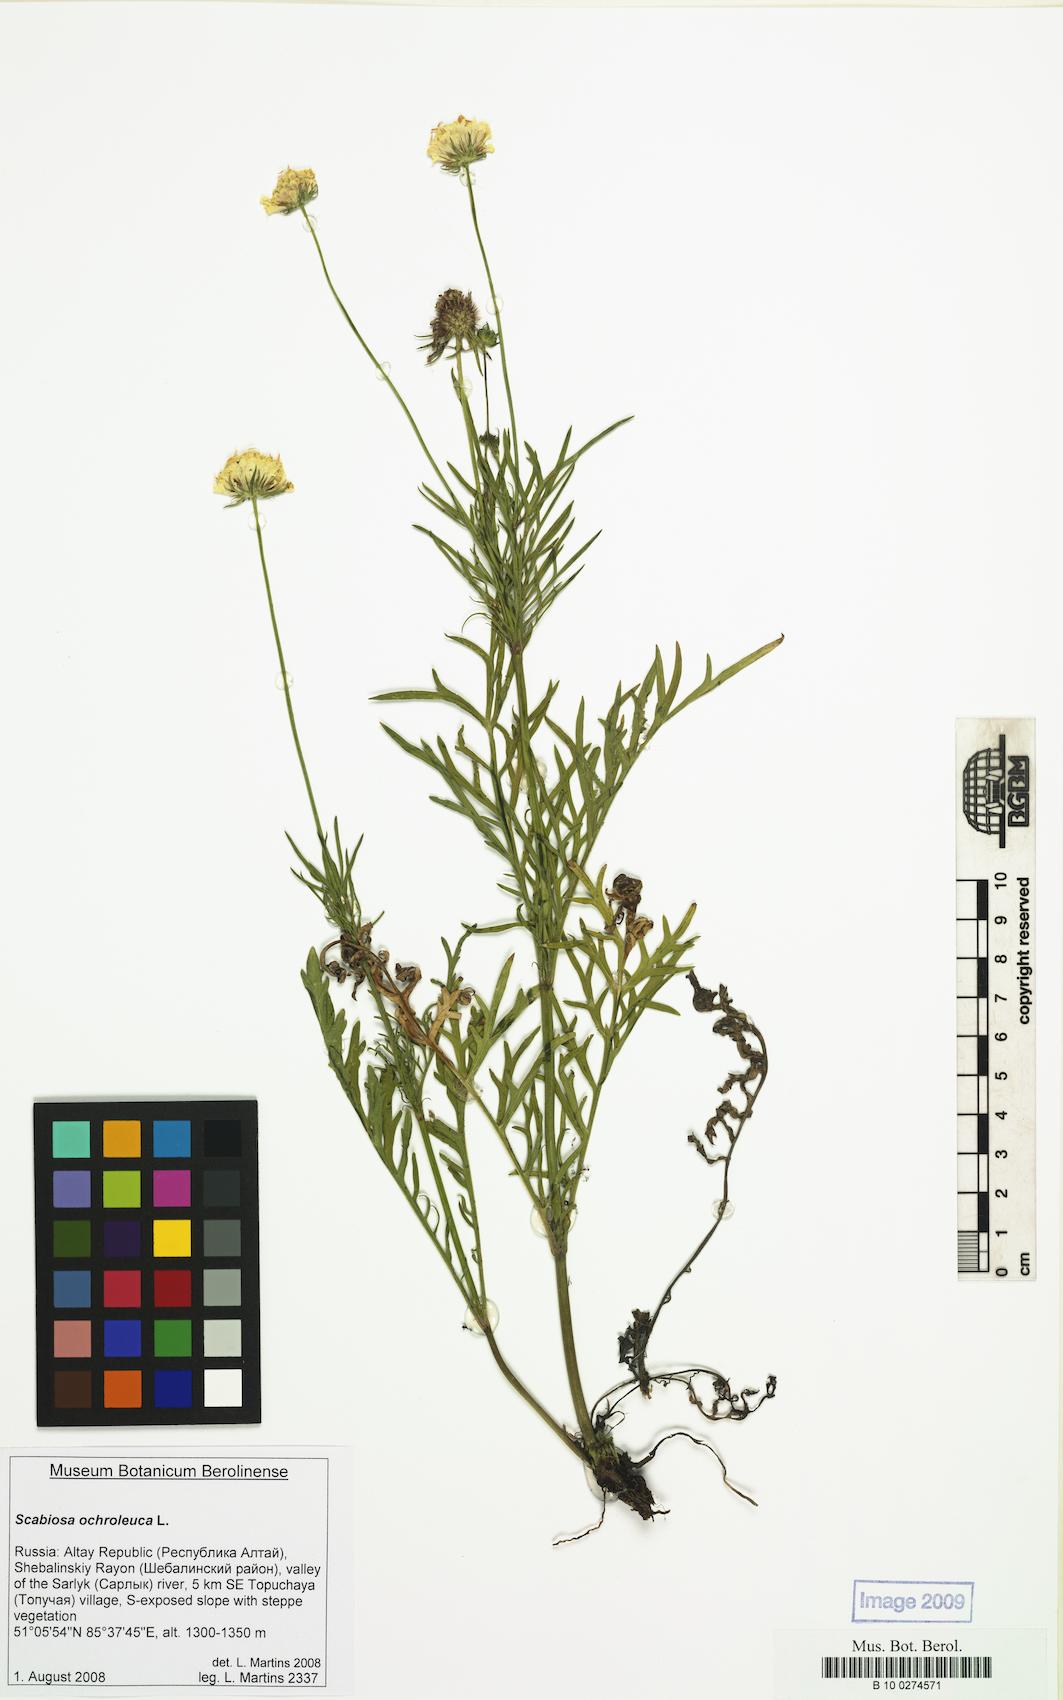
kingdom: Plantae
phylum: Tracheophyta
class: Magnoliopsida
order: Dipsacales
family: Caprifoliaceae
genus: Scabiosa
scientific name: Scabiosa ochroleuca
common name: Cream pincushions
